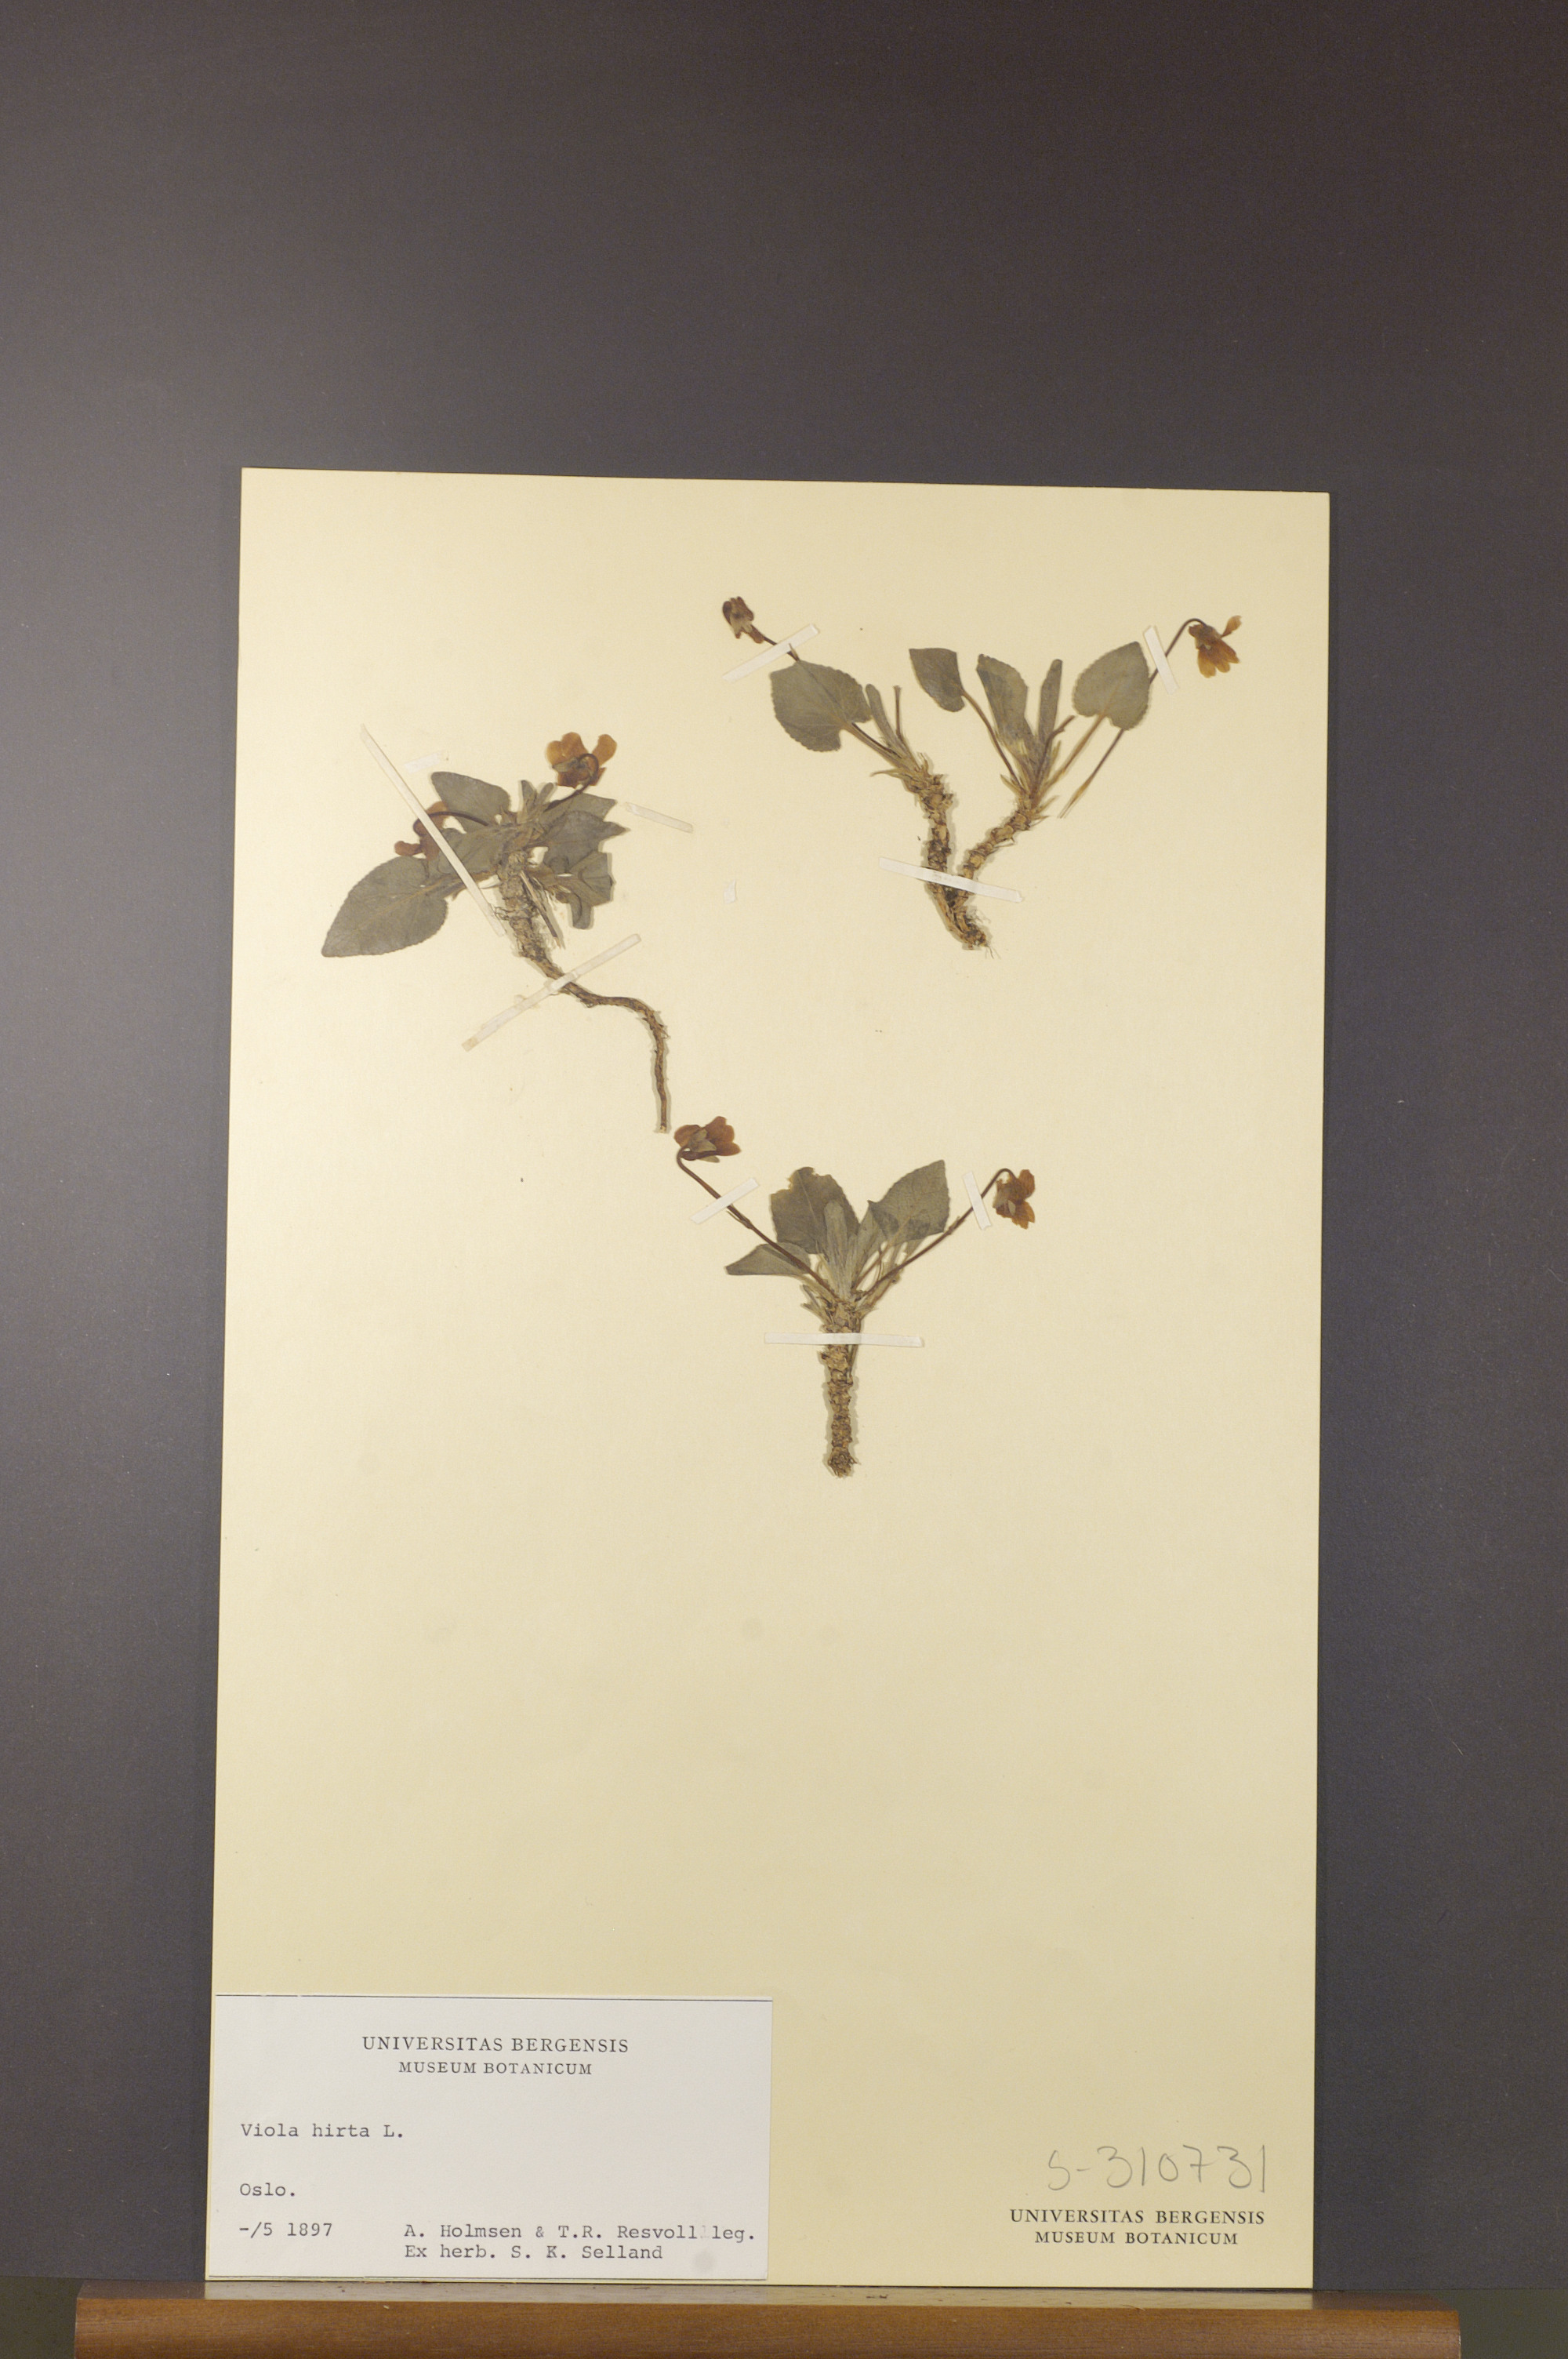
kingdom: Plantae
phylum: Tracheophyta
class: Magnoliopsida
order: Malpighiales
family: Violaceae
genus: Viola
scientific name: Viola hirta
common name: Hairy violet
